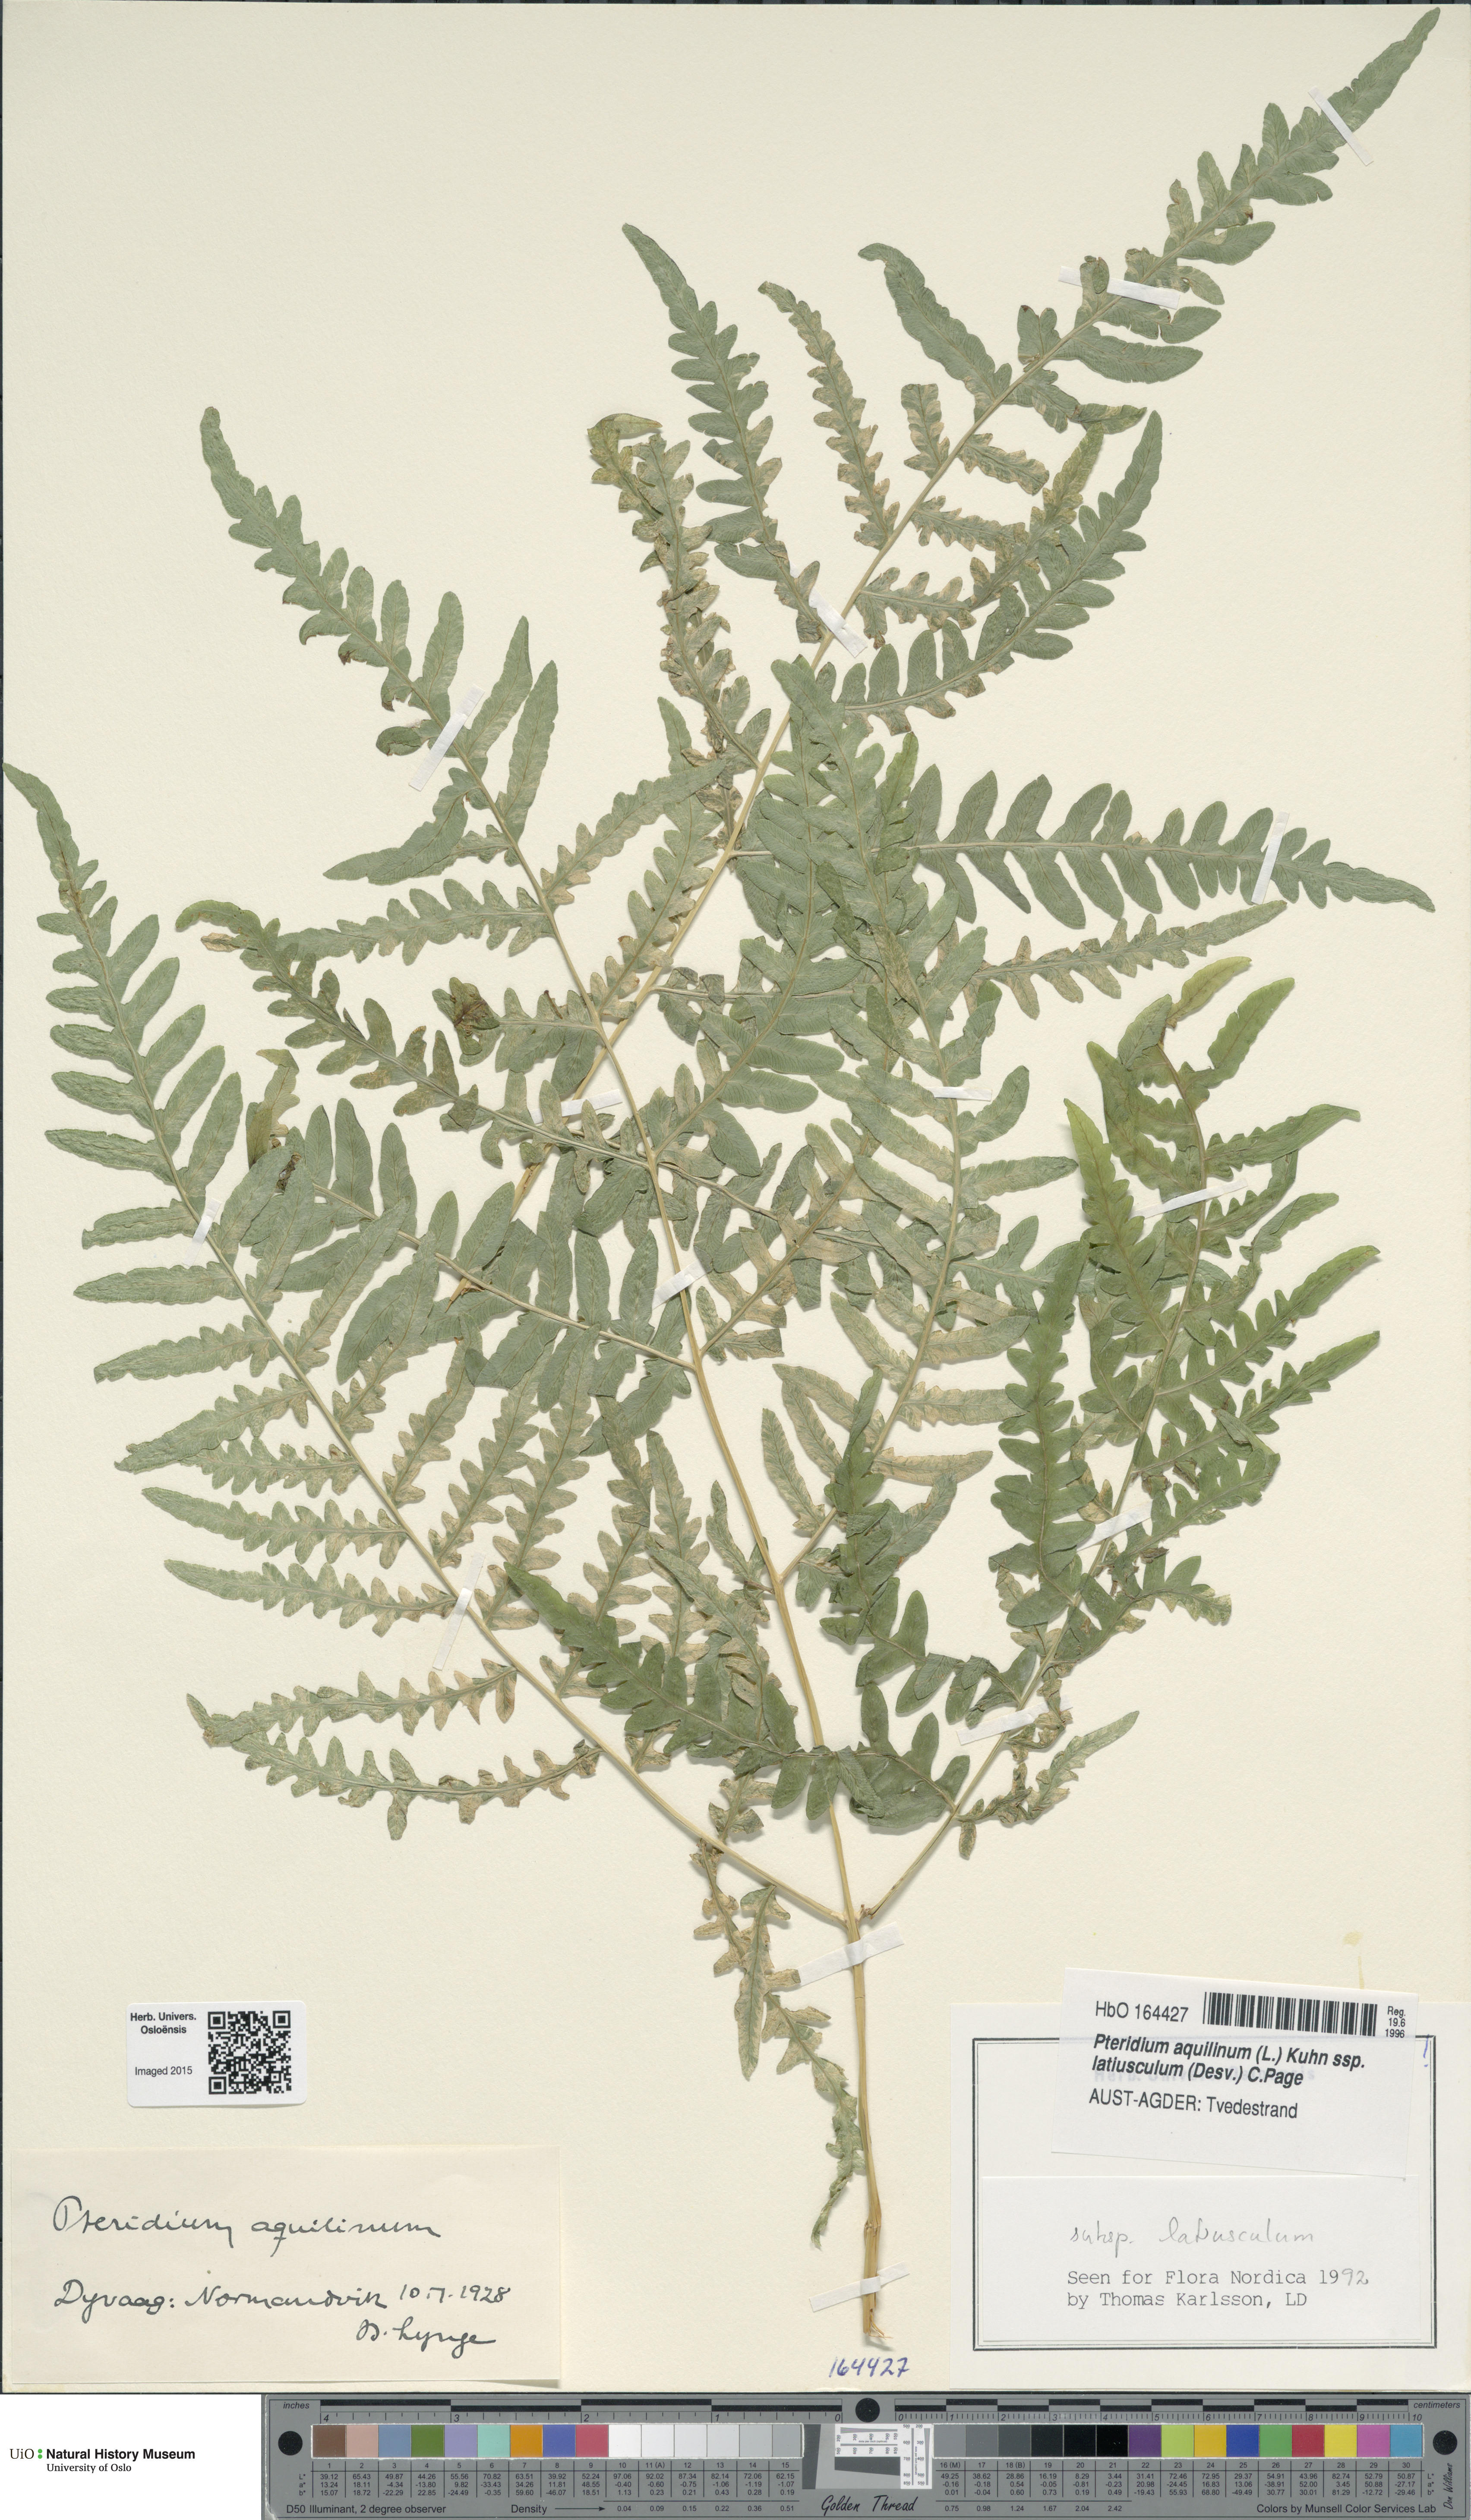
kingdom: Plantae
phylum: Tracheophyta
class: Polypodiopsida
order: Polypodiales
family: Dennstaedtiaceae
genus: Pteridium
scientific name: Pteridium aquilinum
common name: Bracken
